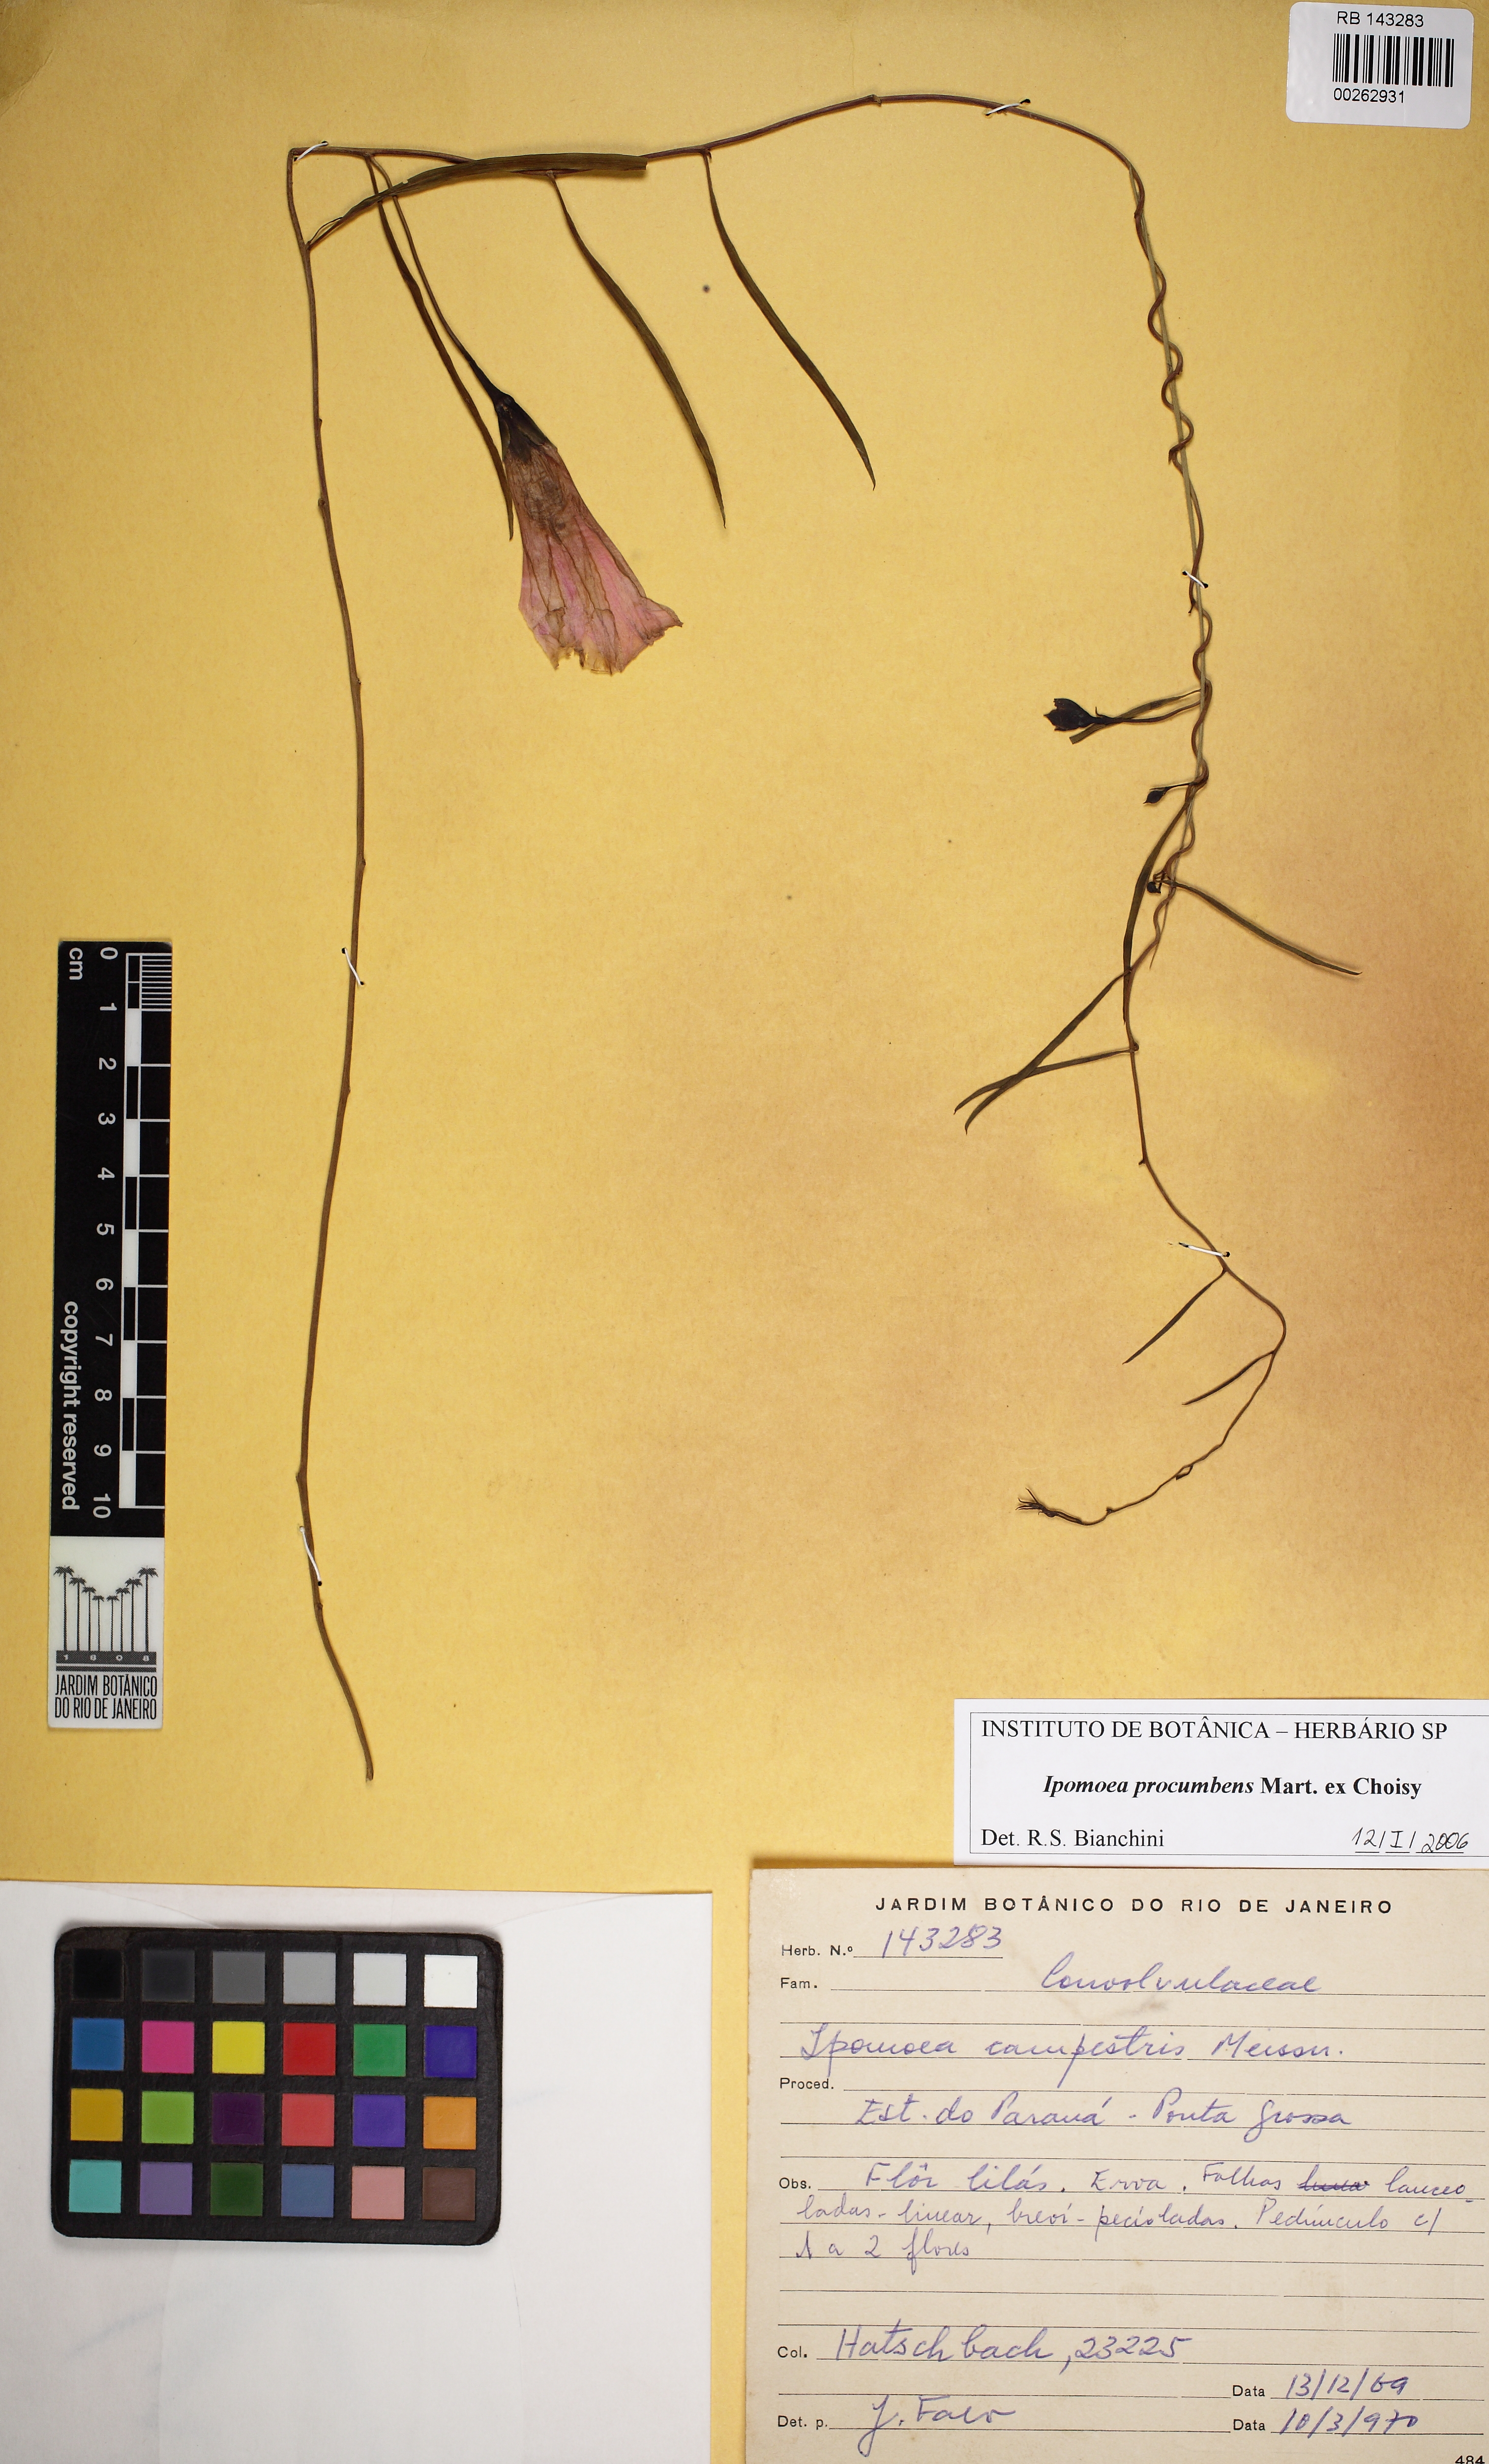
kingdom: Plantae
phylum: Tracheophyta
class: Magnoliopsida
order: Solanales
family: Convolvulaceae
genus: Ipomoea
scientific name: Ipomoea procumbens
